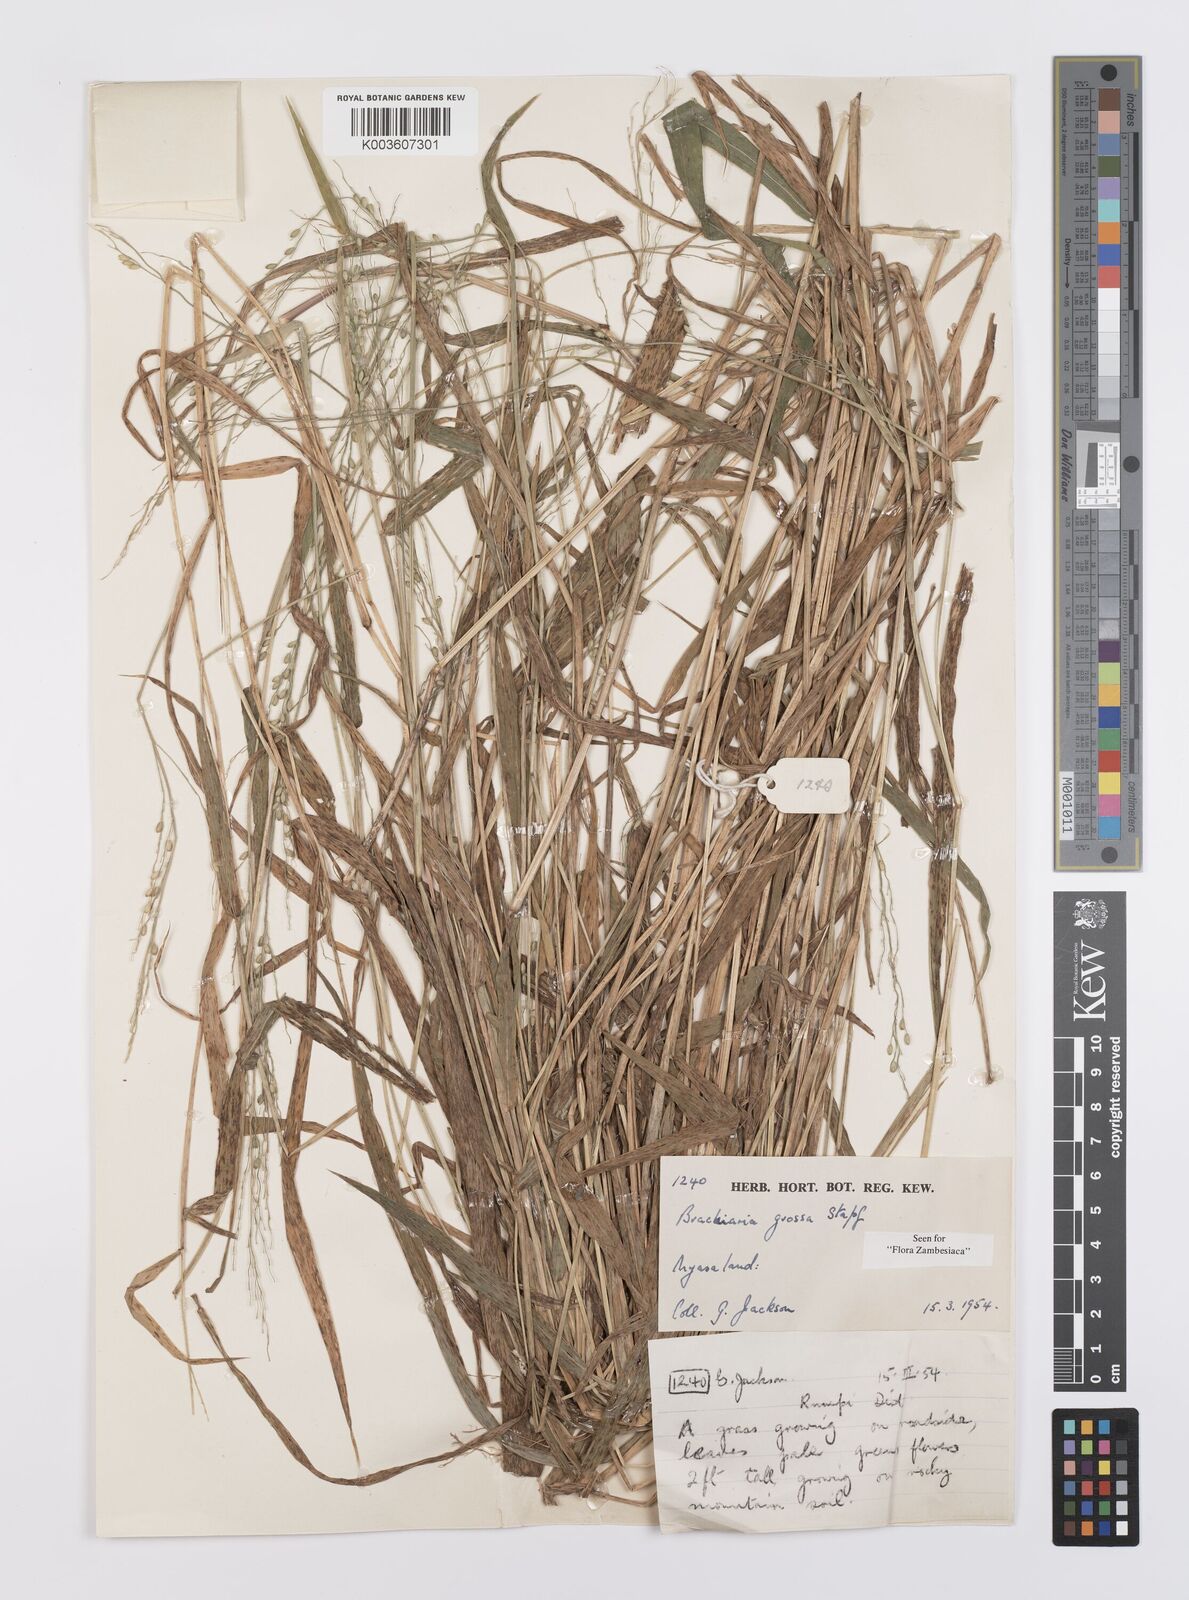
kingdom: Plantae
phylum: Tracheophyta
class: Liliopsida
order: Poales
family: Poaceae
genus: Urochloa
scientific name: Urochloa Brachiaria grossa
